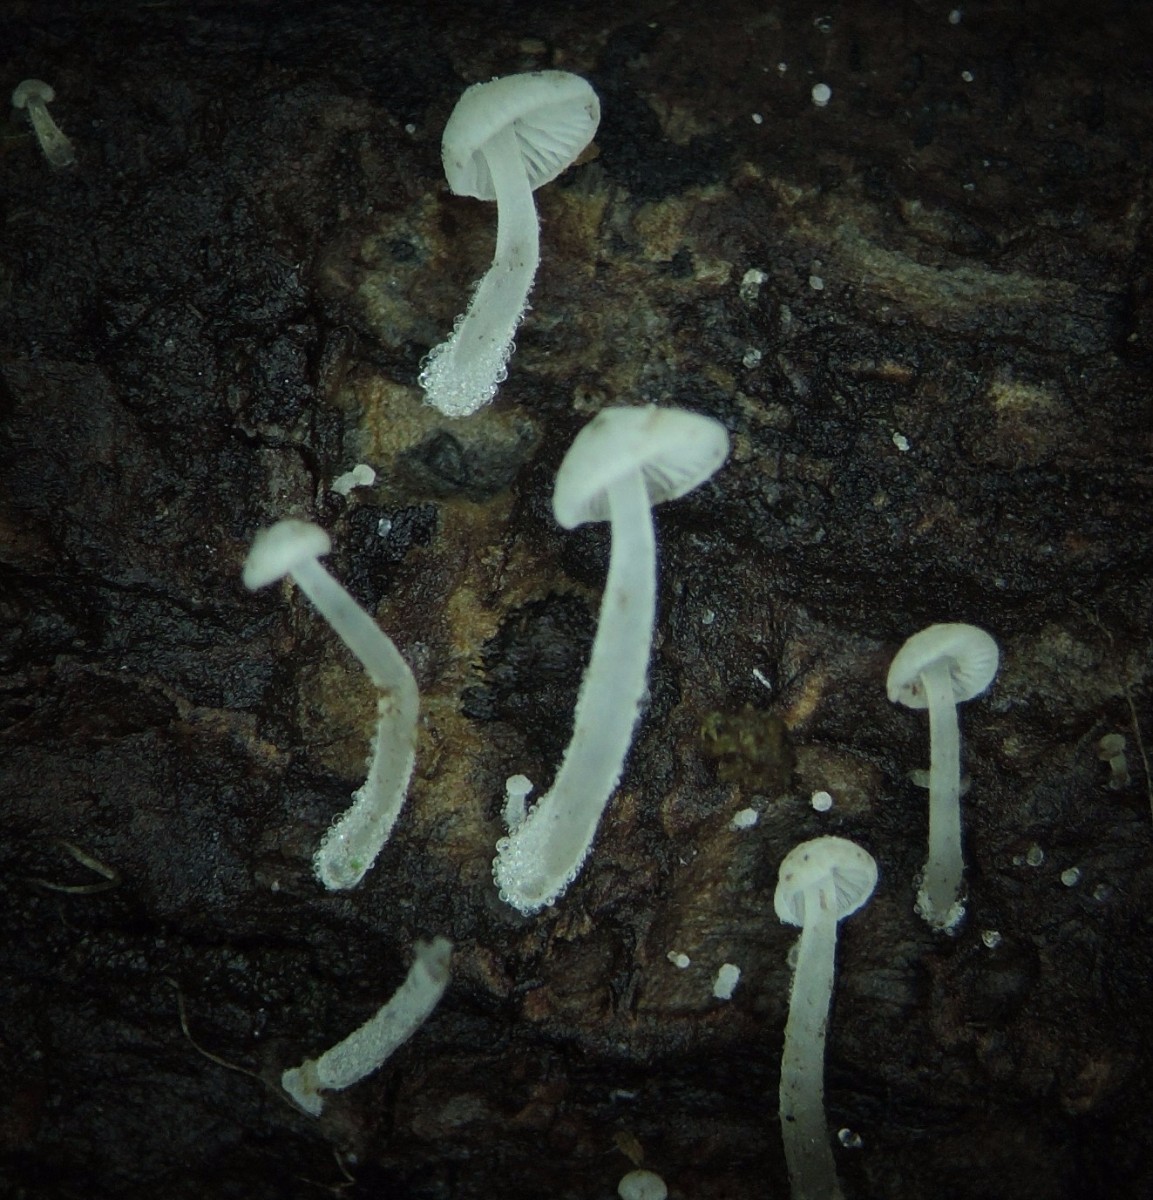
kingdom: Fungi
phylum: Basidiomycota
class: Agaricomycetes
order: Agaricales
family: Mycenaceae
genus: Hemimycena
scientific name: Hemimycena tortuosa
